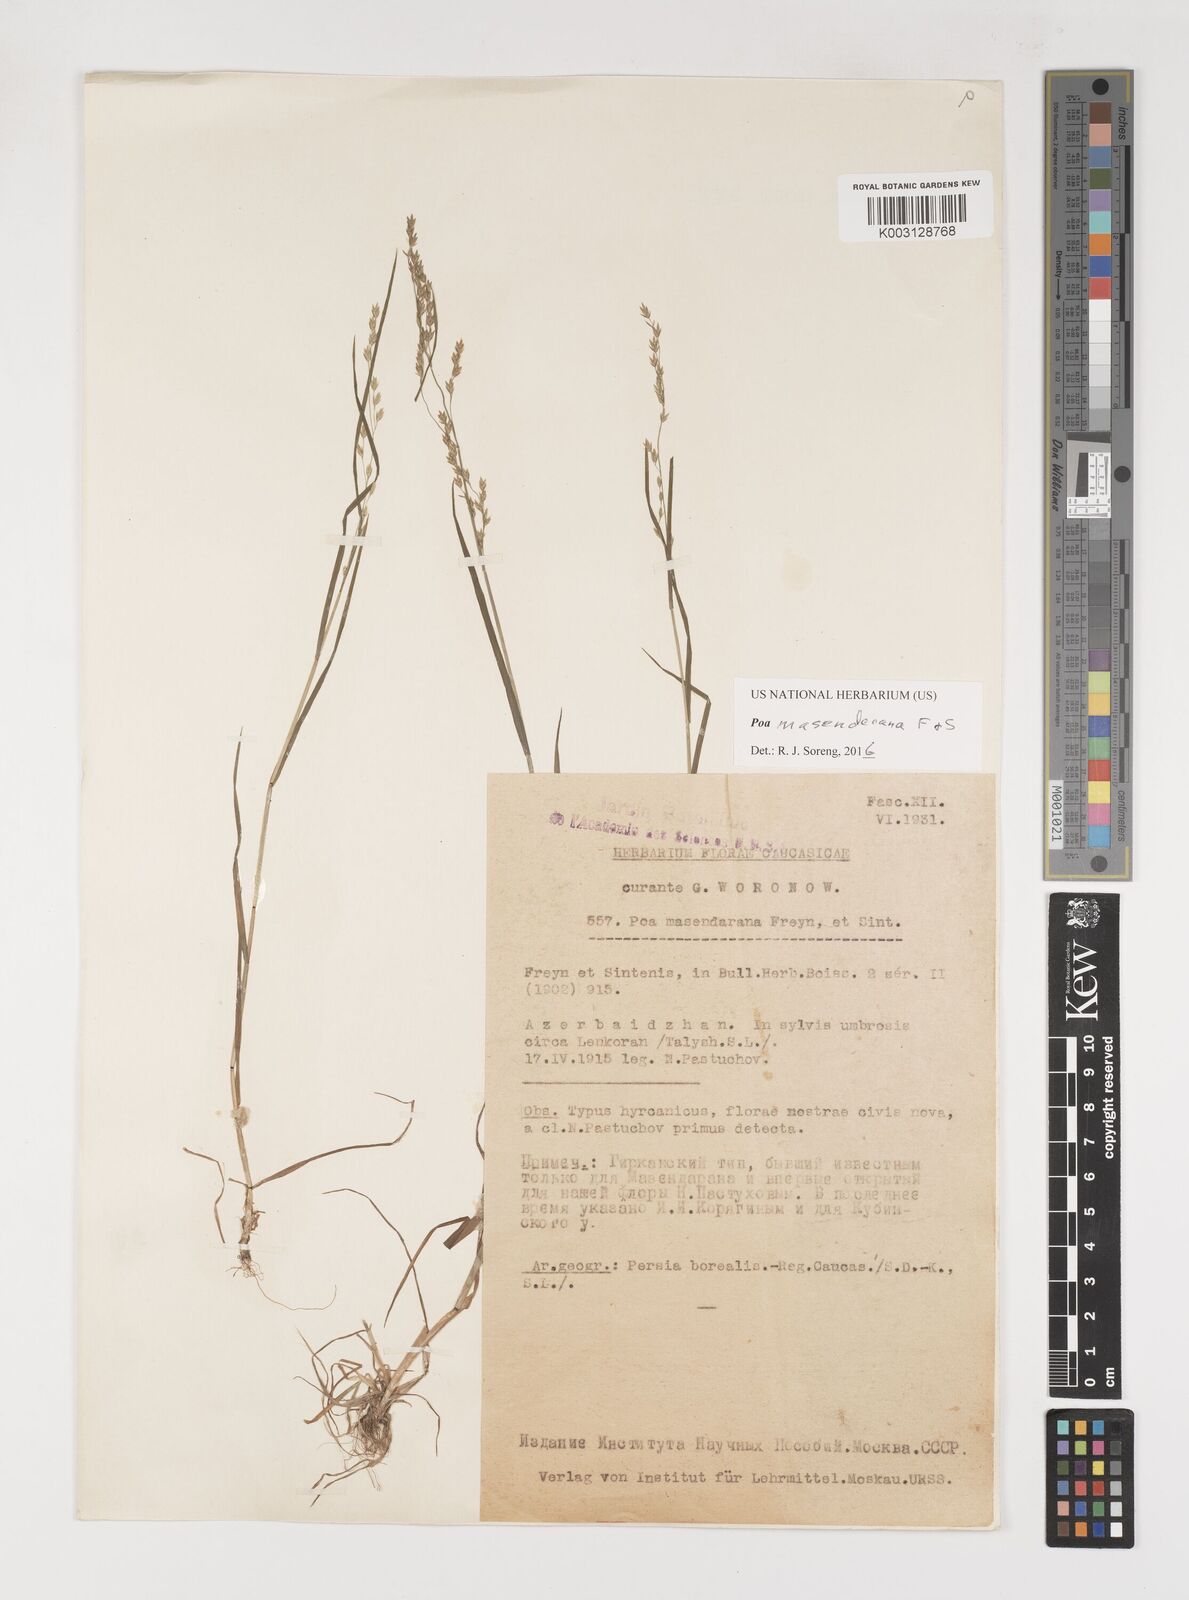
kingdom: Plantae
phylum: Tracheophyta
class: Liliopsida
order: Poales
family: Poaceae
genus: Poa
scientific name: Poa masenderana
